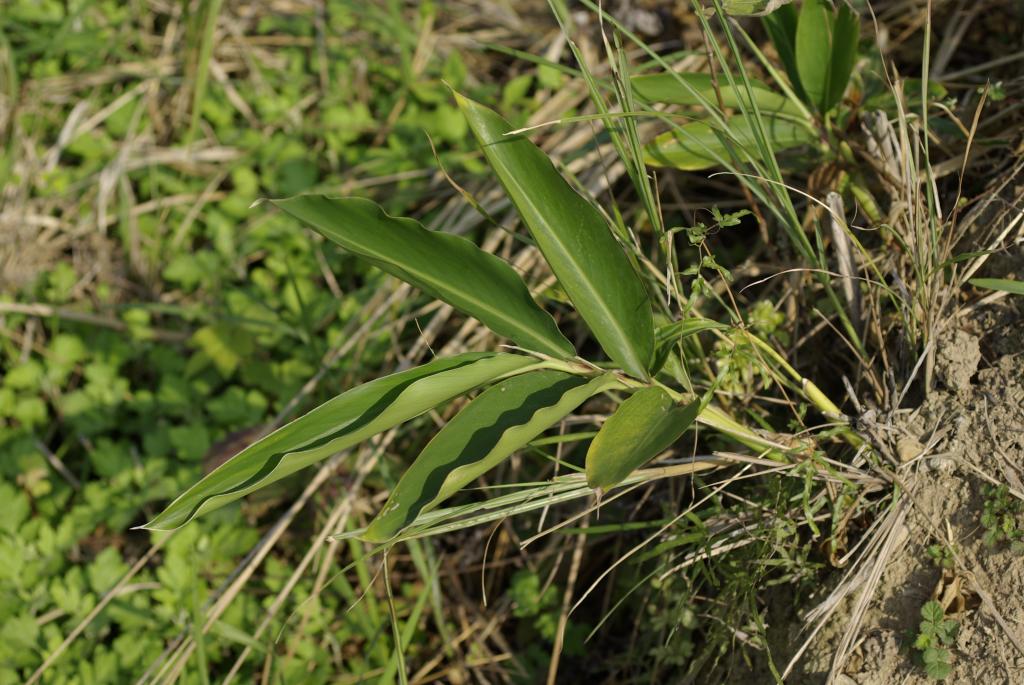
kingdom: Plantae
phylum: Tracheophyta
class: Liliopsida
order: Zingiberales
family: Zingiberaceae
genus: Alpinia
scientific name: Alpinia zerumbet
